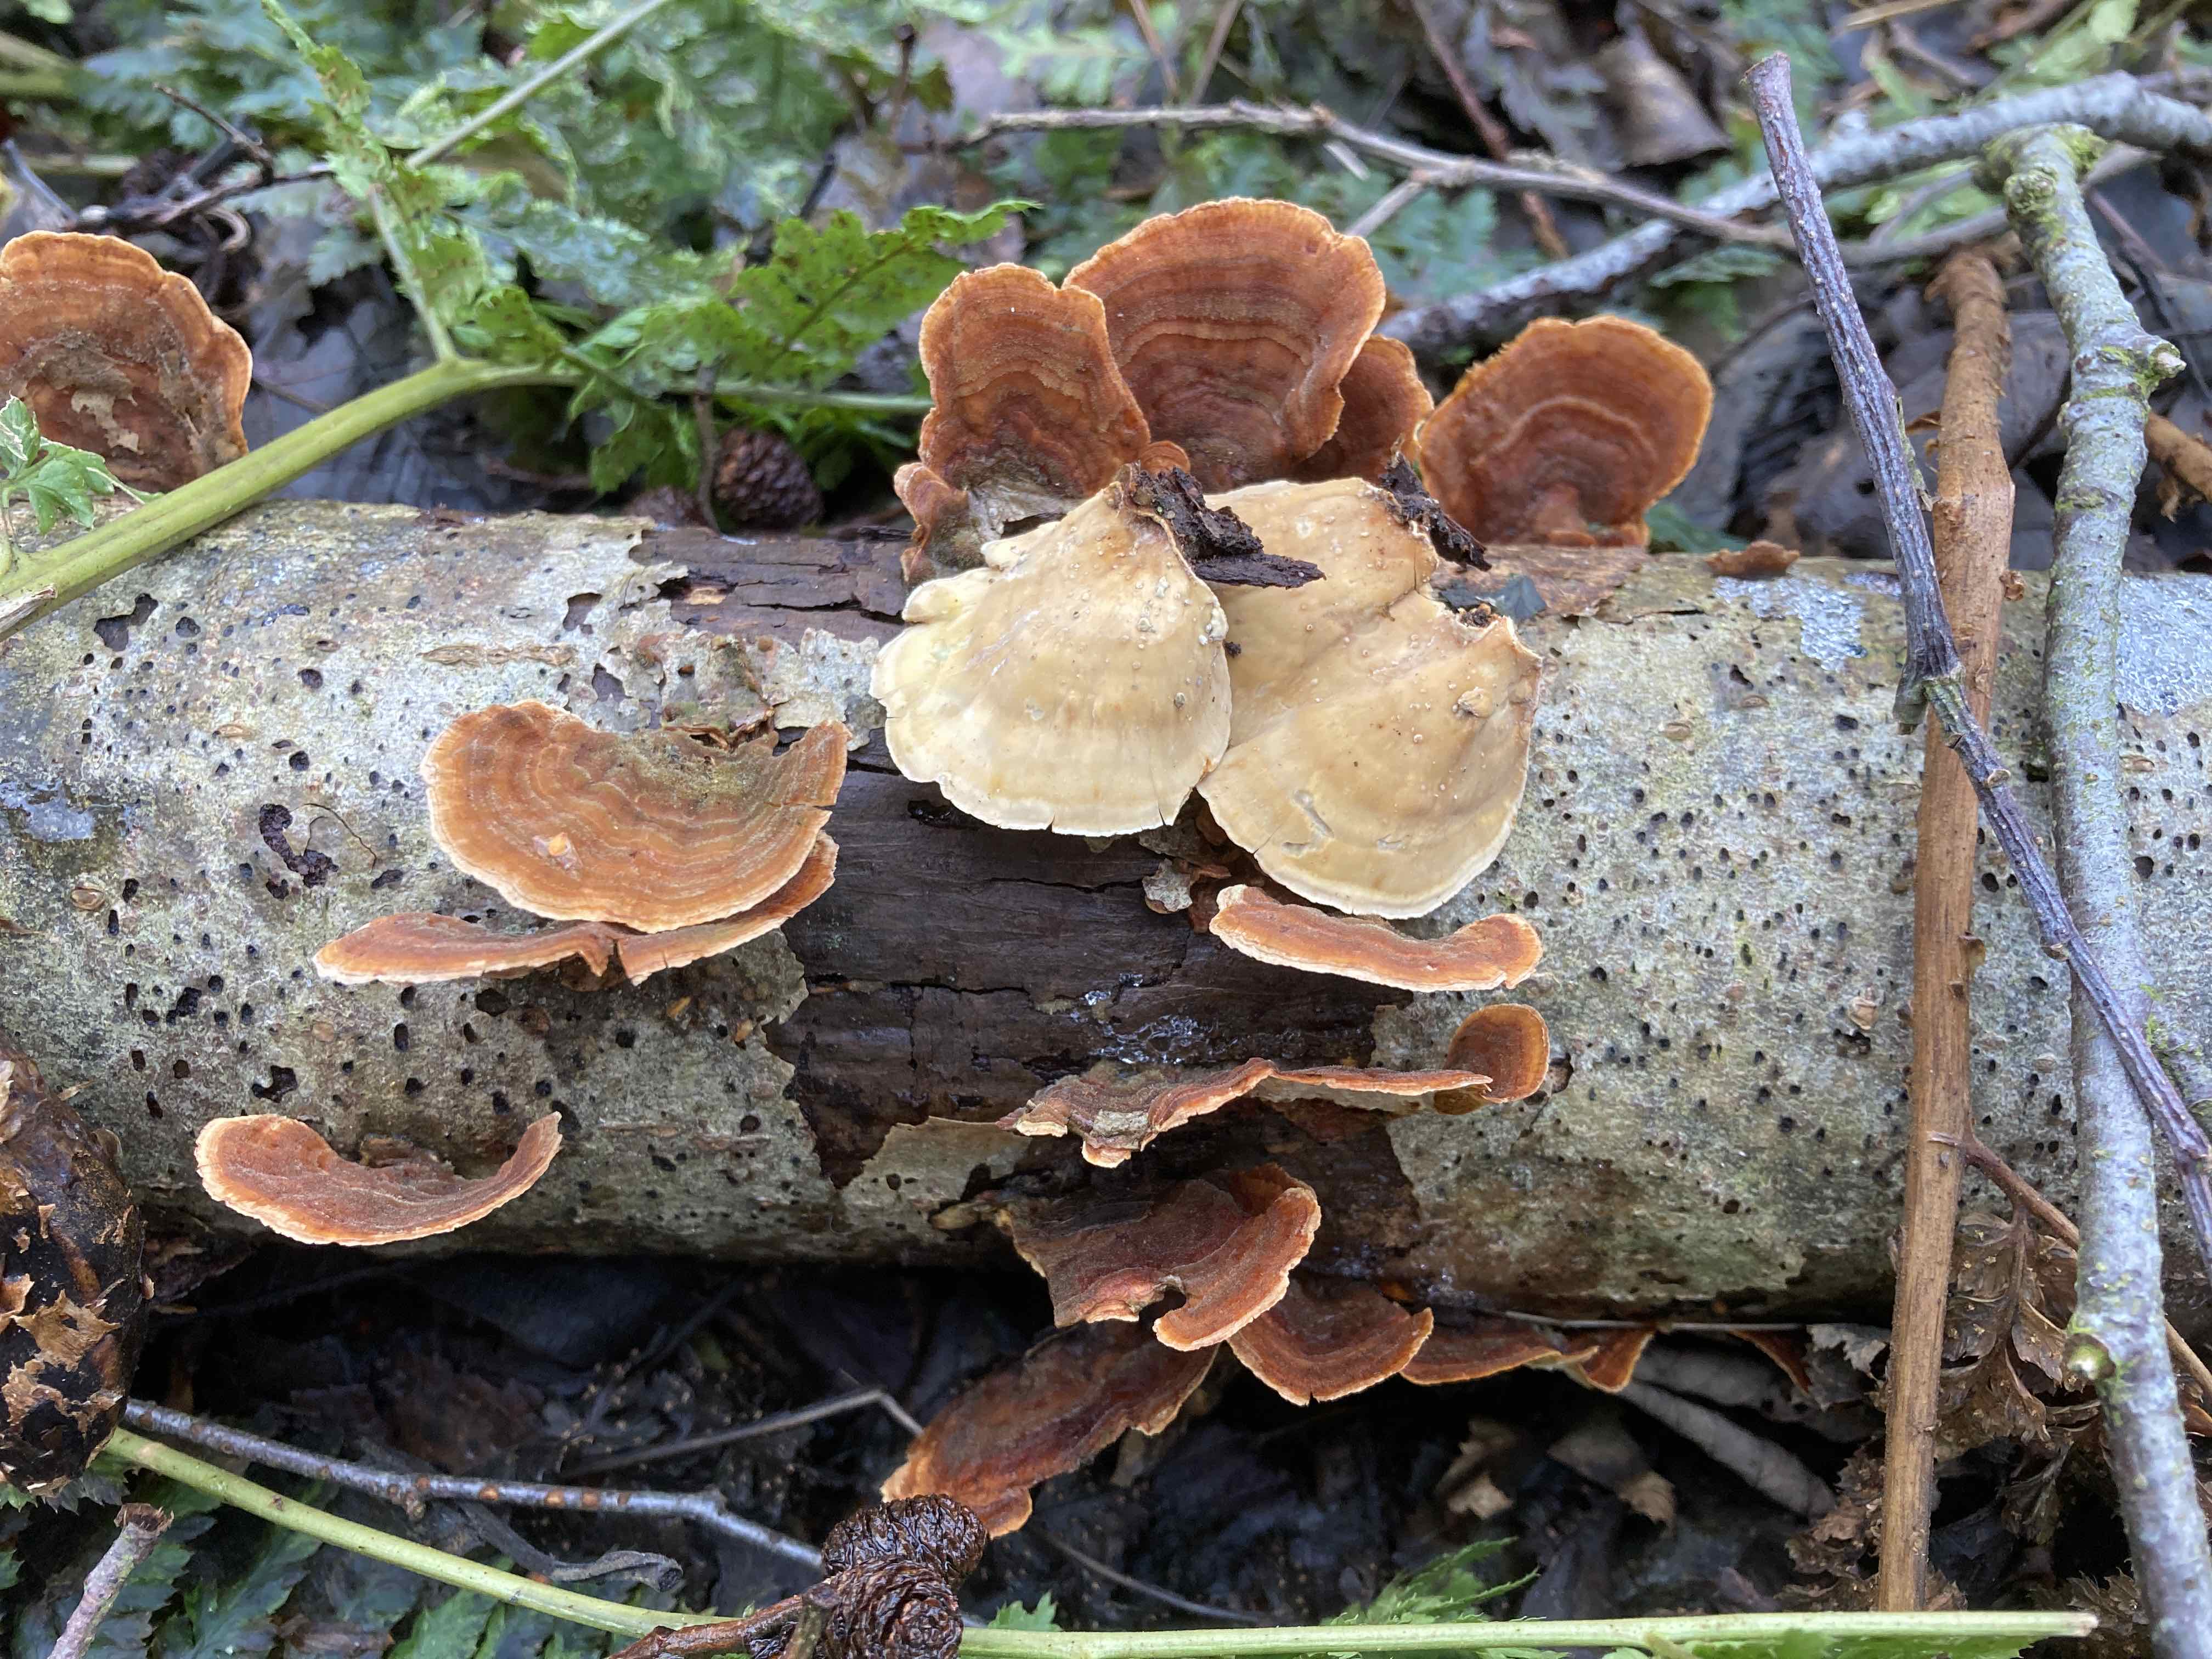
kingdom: Fungi
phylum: Basidiomycota
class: Agaricomycetes
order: Russulales
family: Stereaceae
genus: Stereum
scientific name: Stereum subtomentosum
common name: smuk lædersvamp
